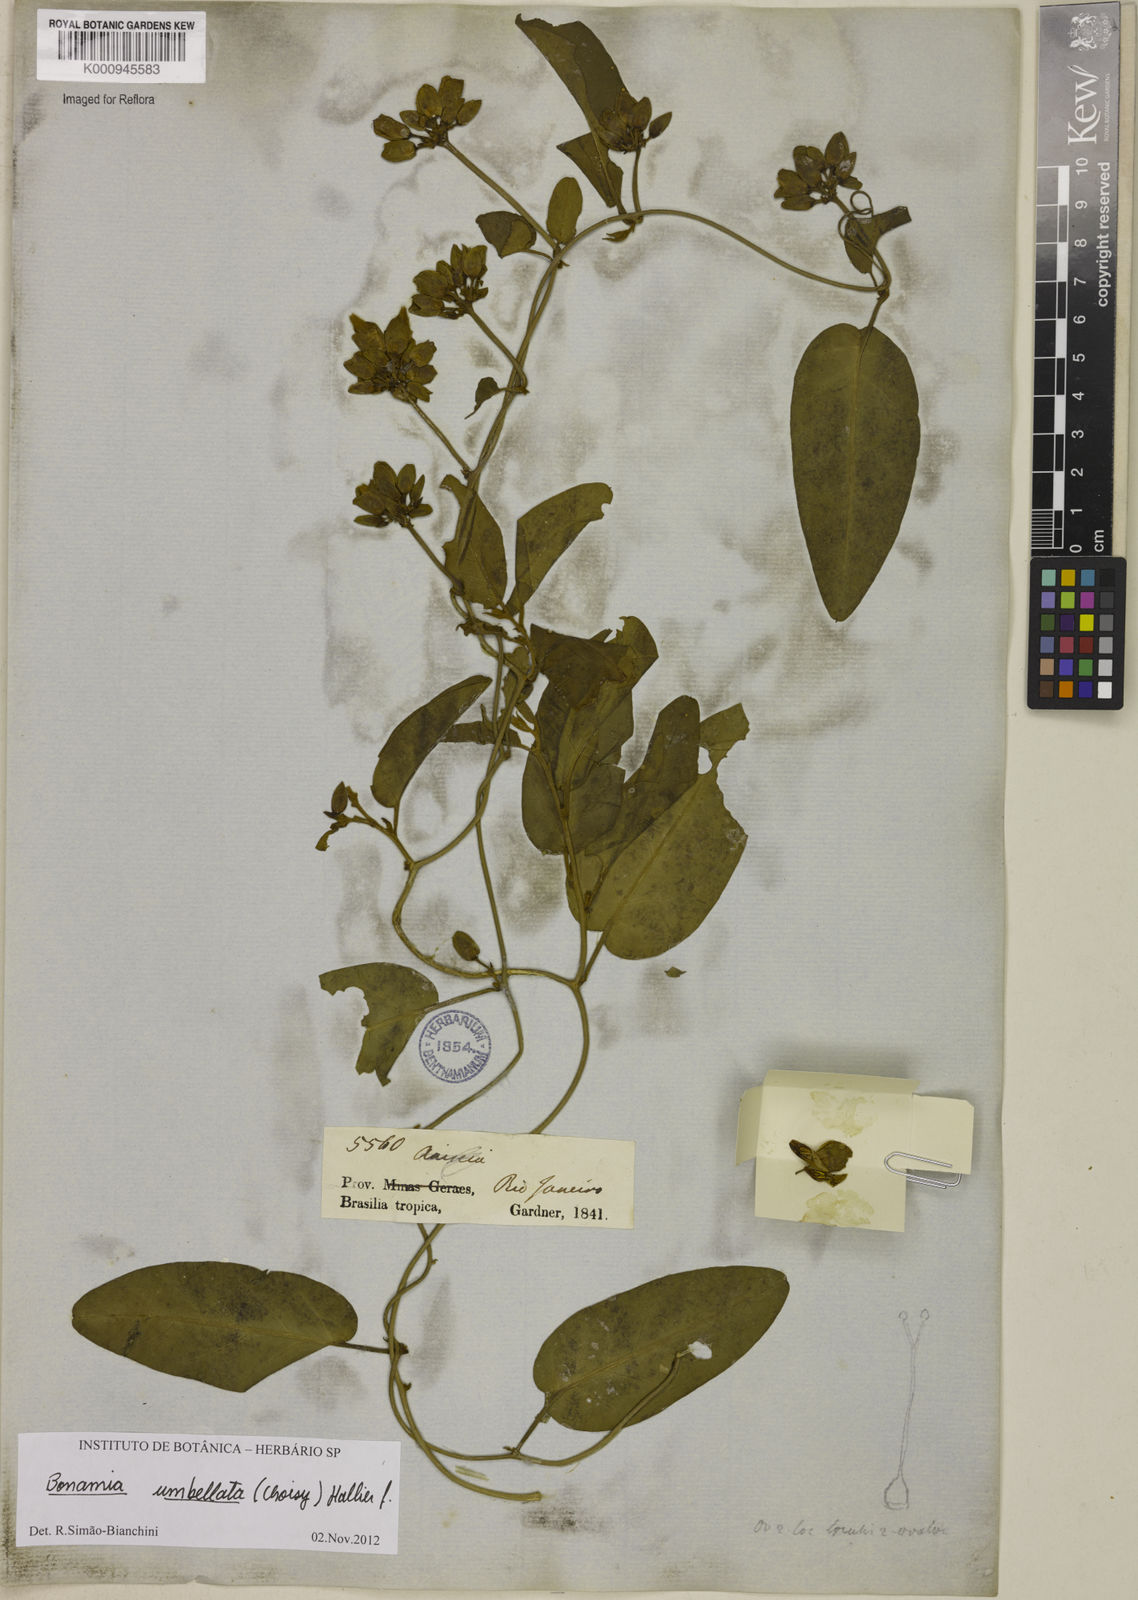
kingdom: Plantae
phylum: Tracheophyta
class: Magnoliopsida
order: Solanales
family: Convolvulaceae
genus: Bonamia
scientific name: Bonamia umbellata
